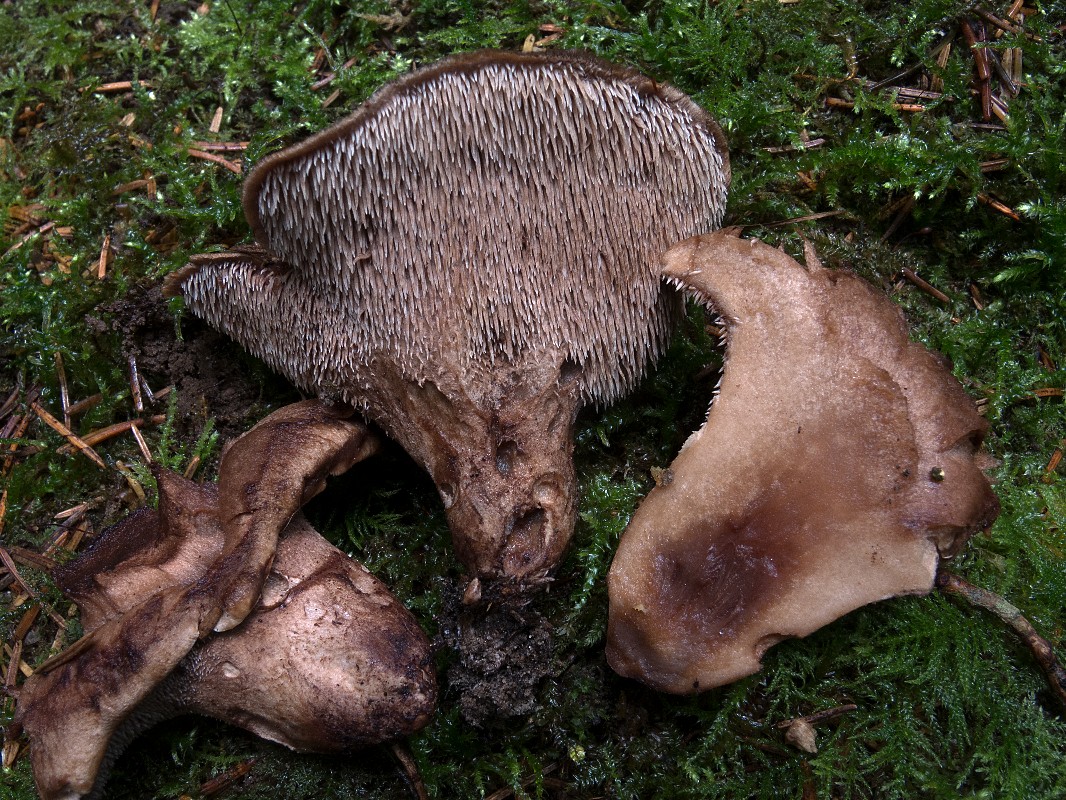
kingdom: Fungi
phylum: Basidiomycota
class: Agaricomycetes
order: Thelephorales
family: Bankeraceae
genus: Sarcodon
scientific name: Sarcodon imbricatus
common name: skællet kødpigsvamp
